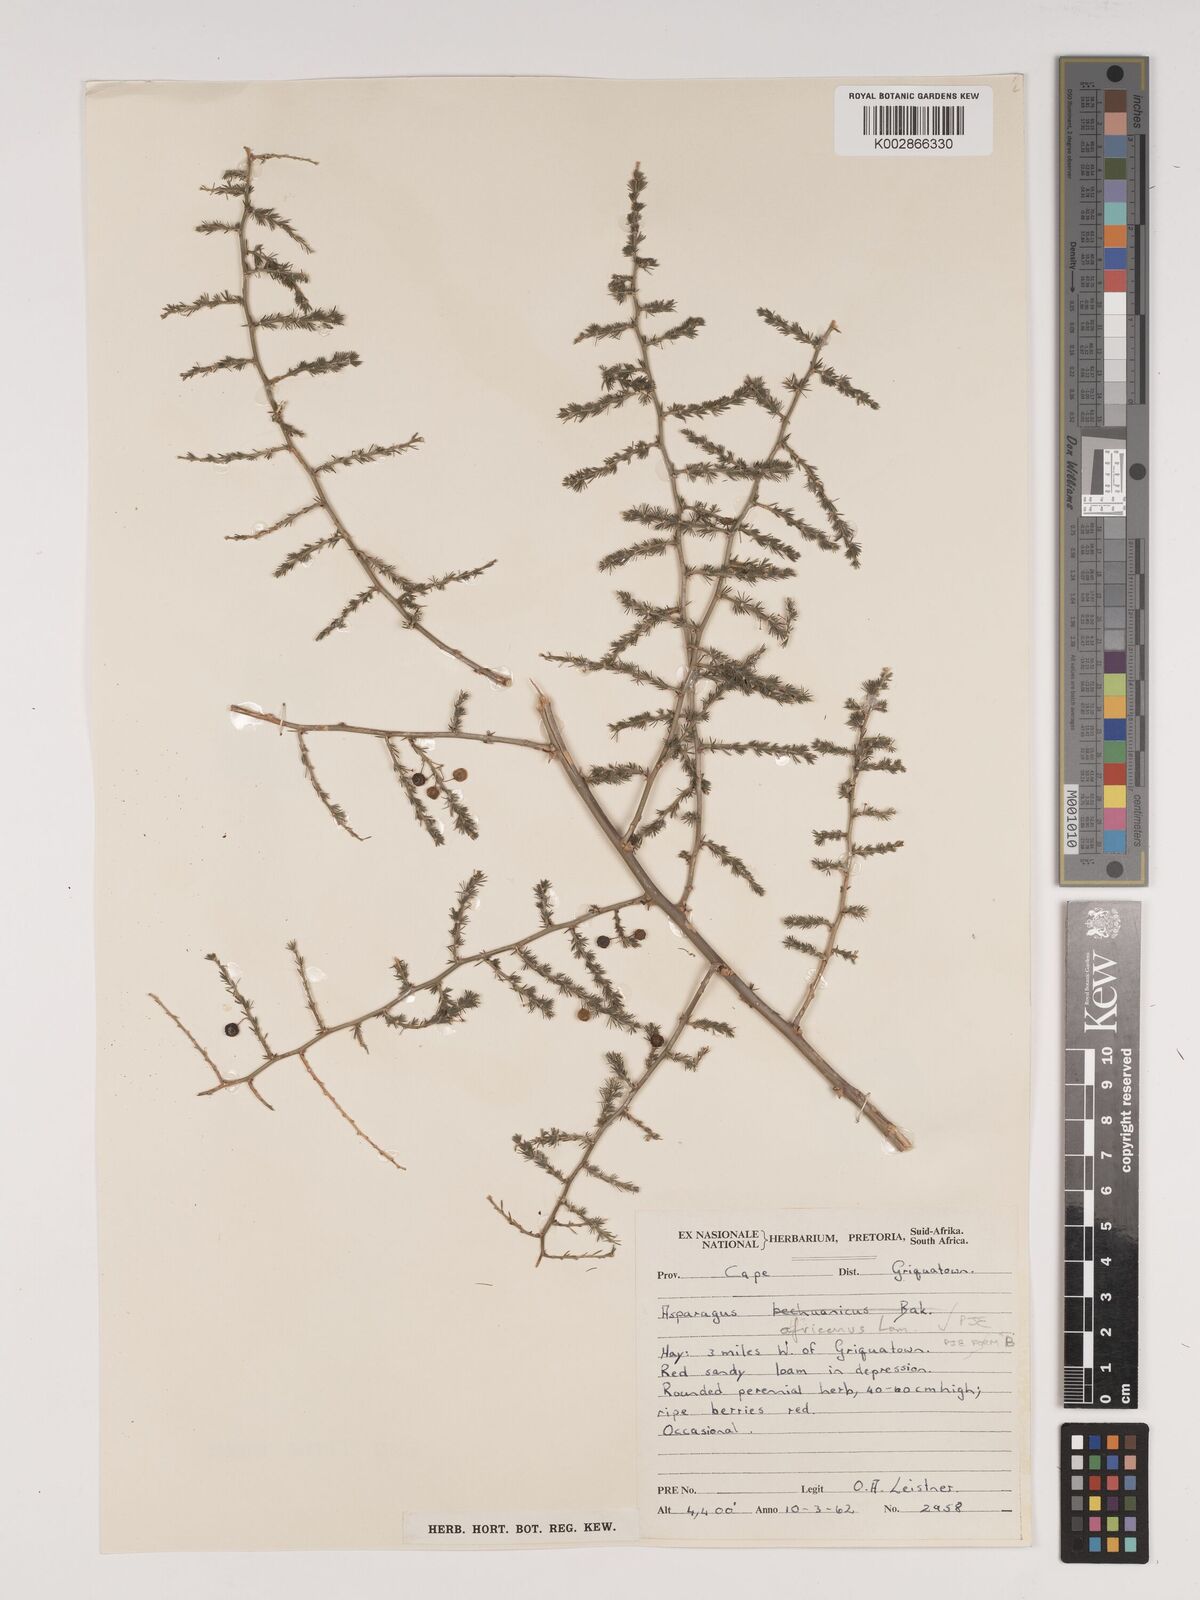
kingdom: Plantae
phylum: Tracheophyta
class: Liliopsida
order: Asparagales
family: Asparagaceae
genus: Asparagus
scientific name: Asparagus africanus
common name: Asparagus-fern
